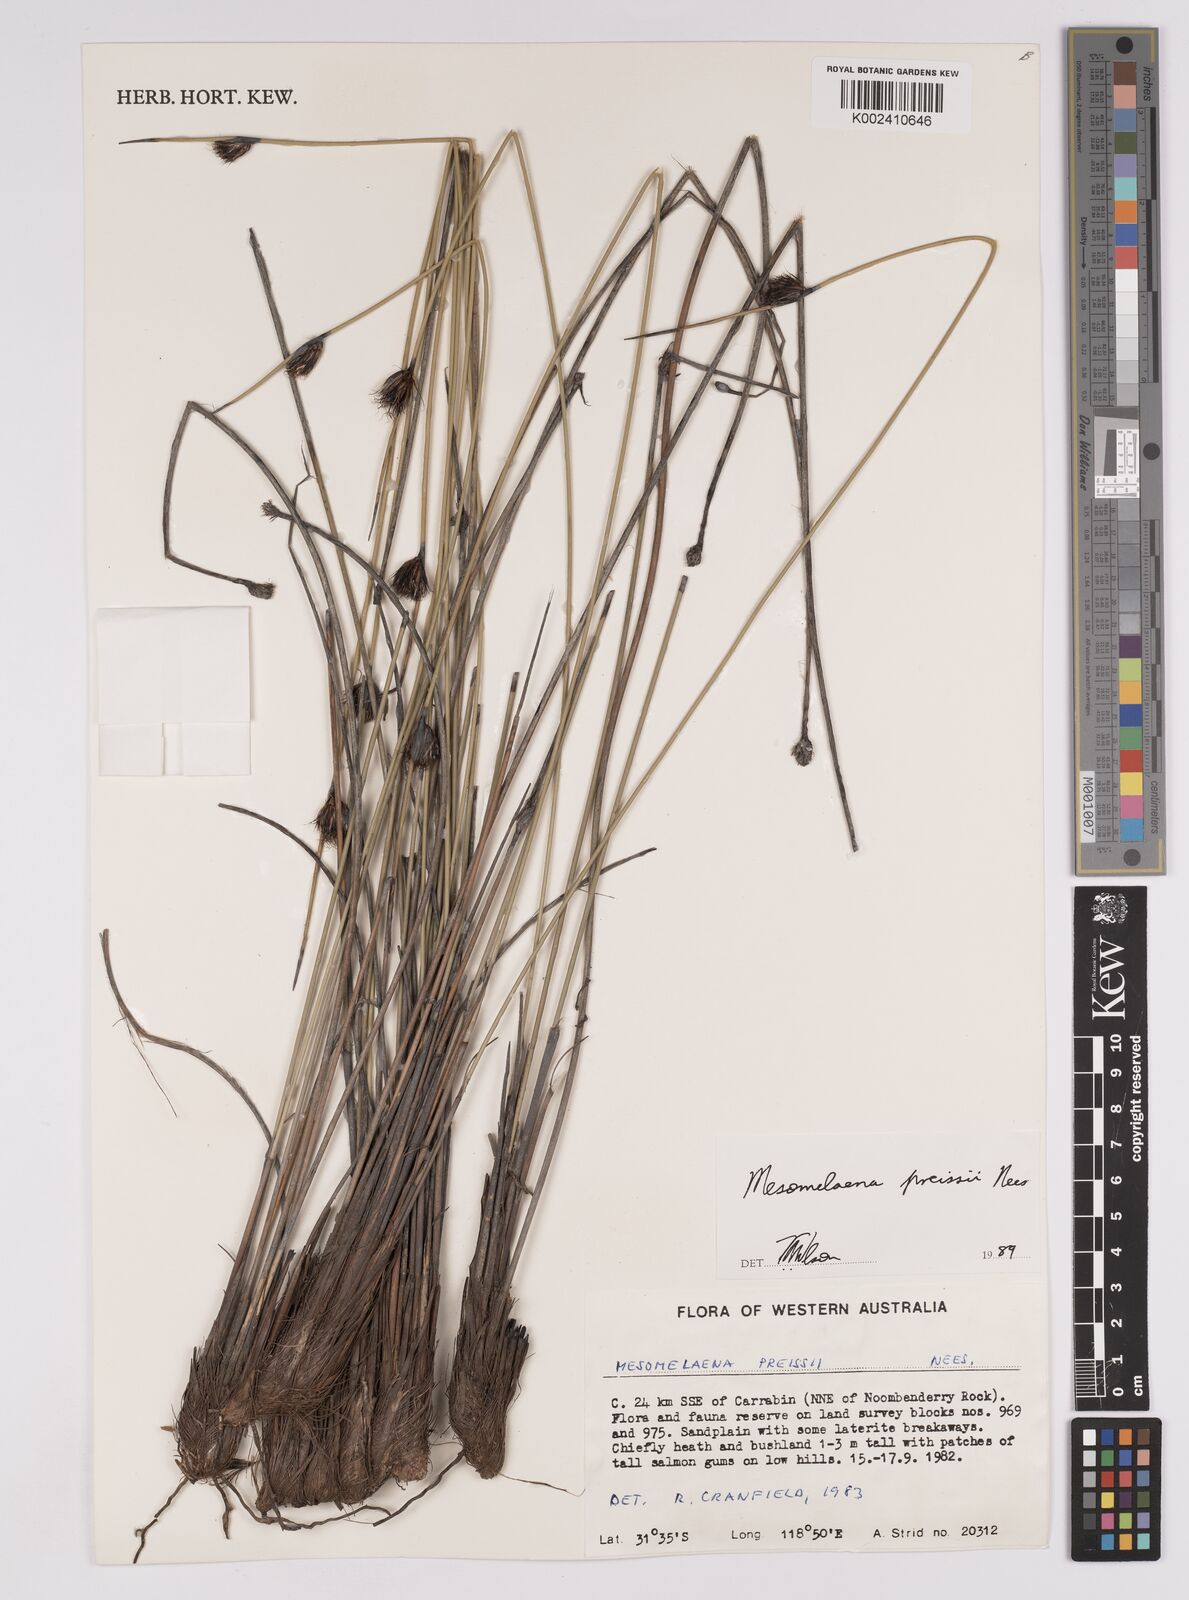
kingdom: Plantae
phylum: Tracheophyta
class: Liliopsida
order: Poales
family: Cyperaceae
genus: Mesomelaena
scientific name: Mesomelaena preissii
